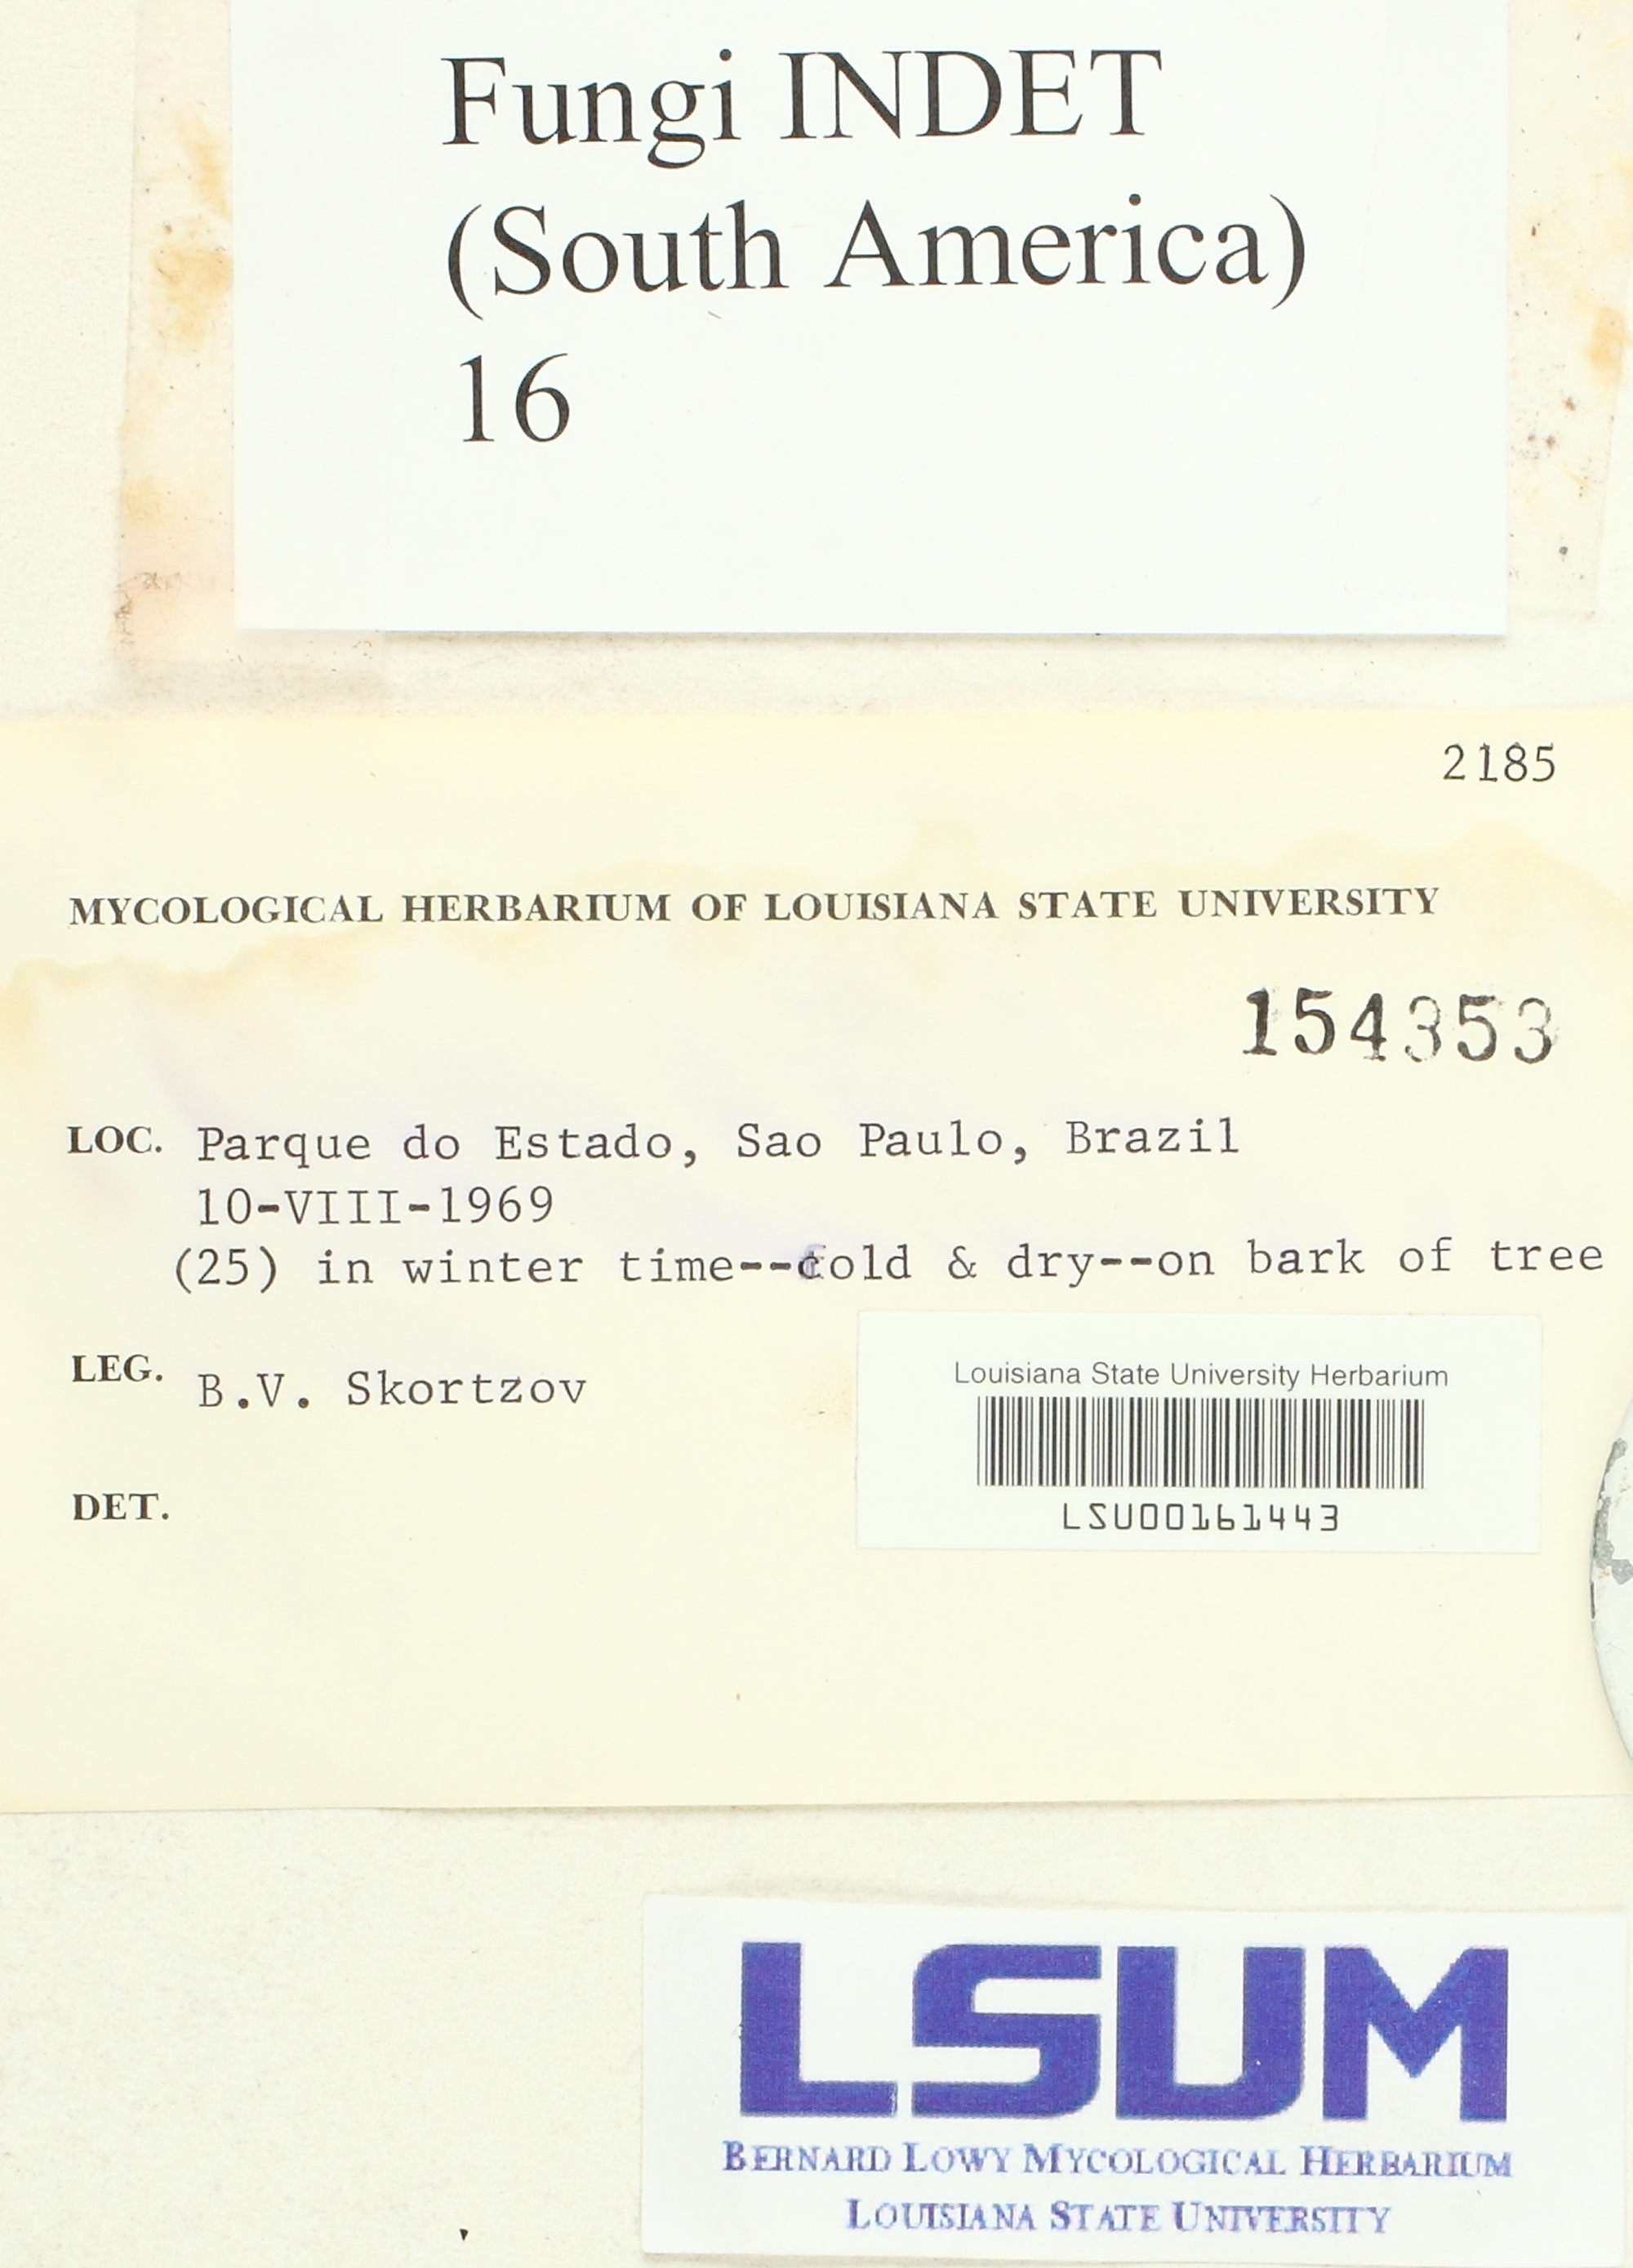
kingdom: Fungi
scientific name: Fungi
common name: Fungi
